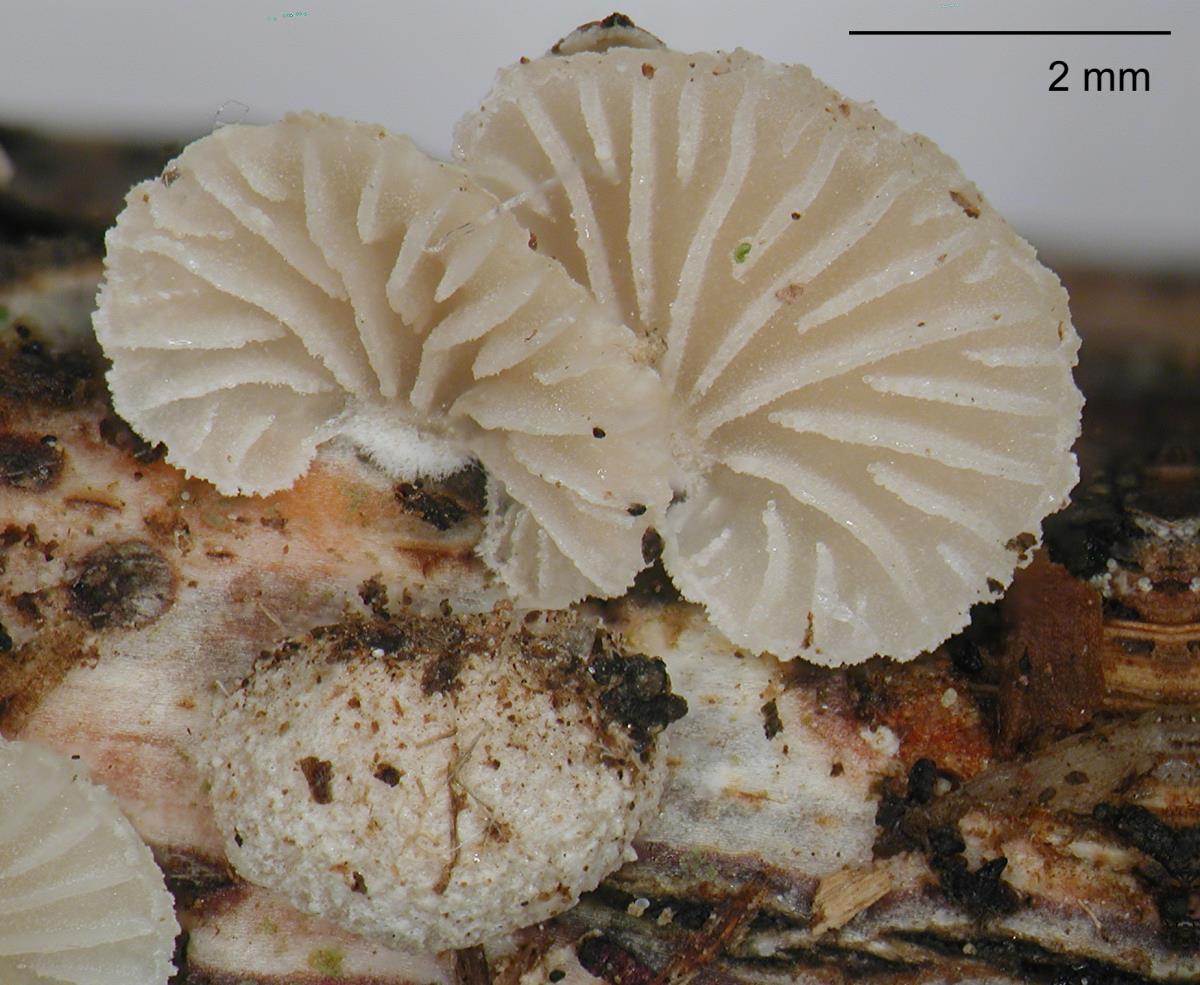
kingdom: Fungi
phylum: Basidiomycota
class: Agaricomycetes
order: Agaricales
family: Mycenaceae
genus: Resinomycena
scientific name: Resinomycena
